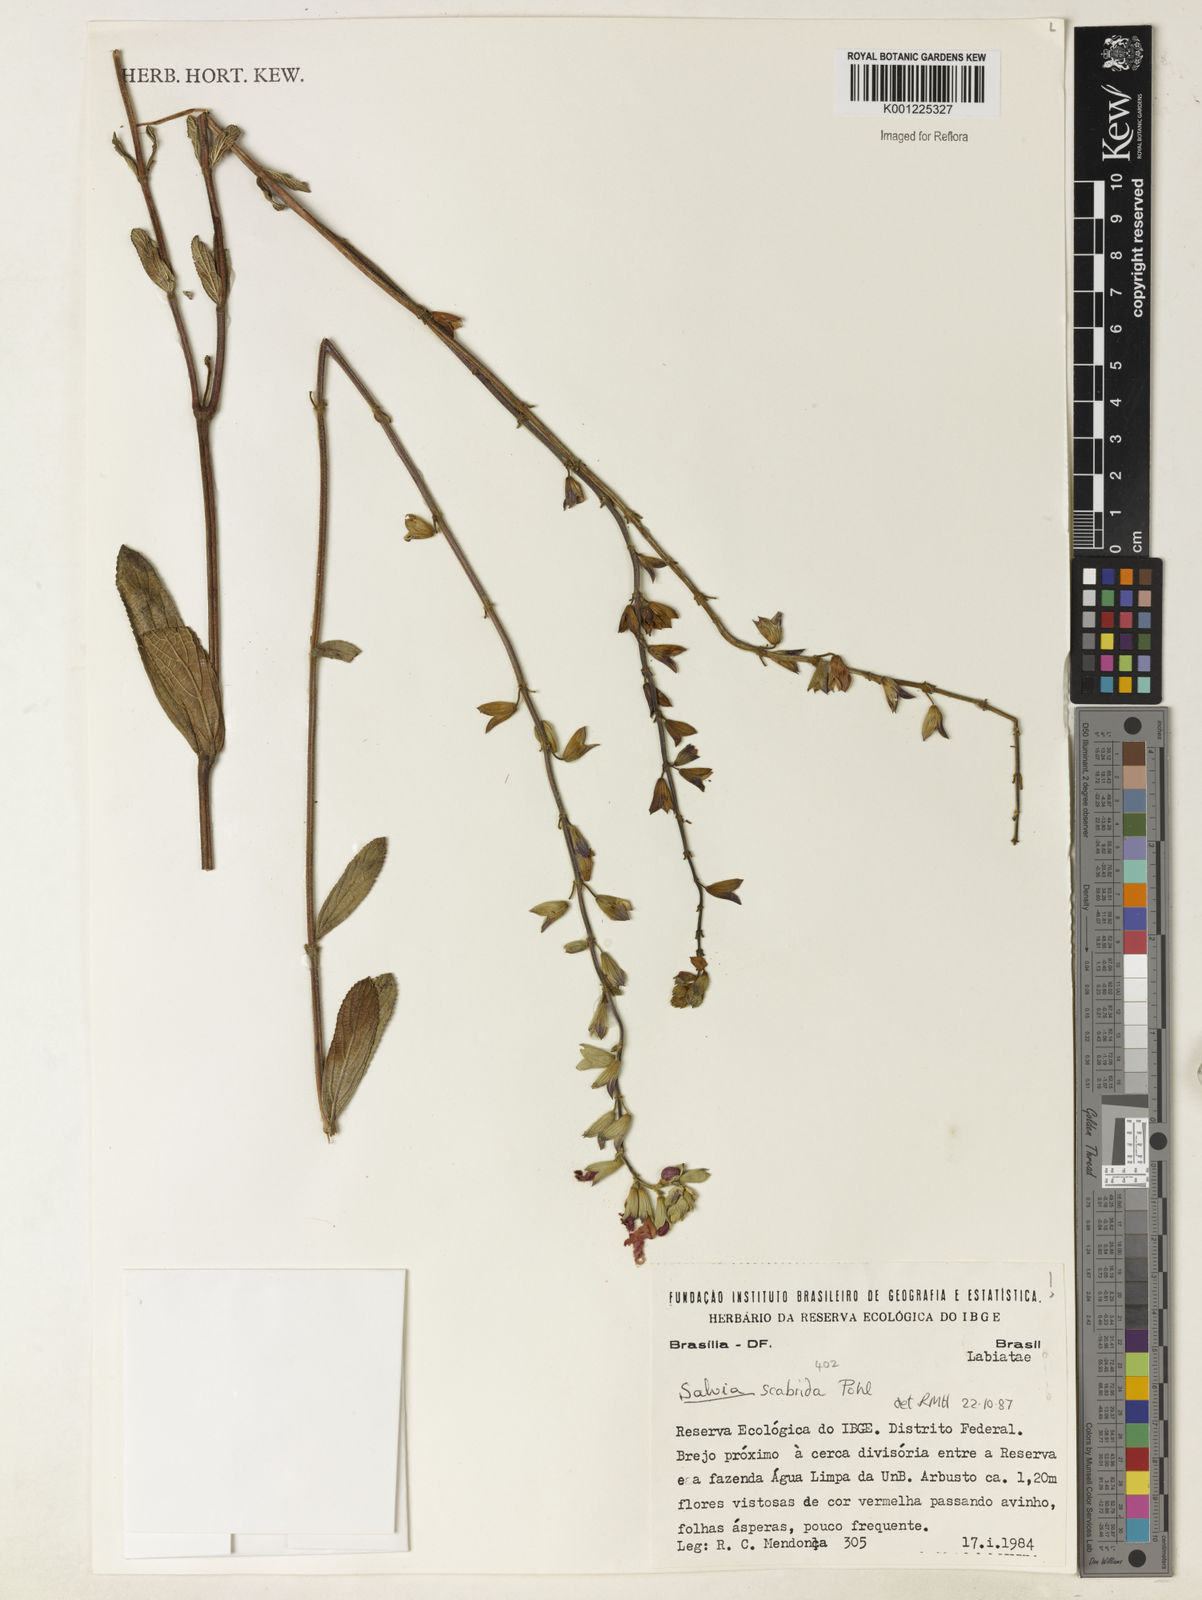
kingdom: Plantae
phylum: Tracheophyta
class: Magnoliopsida
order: Lamiales
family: Lamiaceae
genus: Salvia
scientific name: Salvia scabrida
